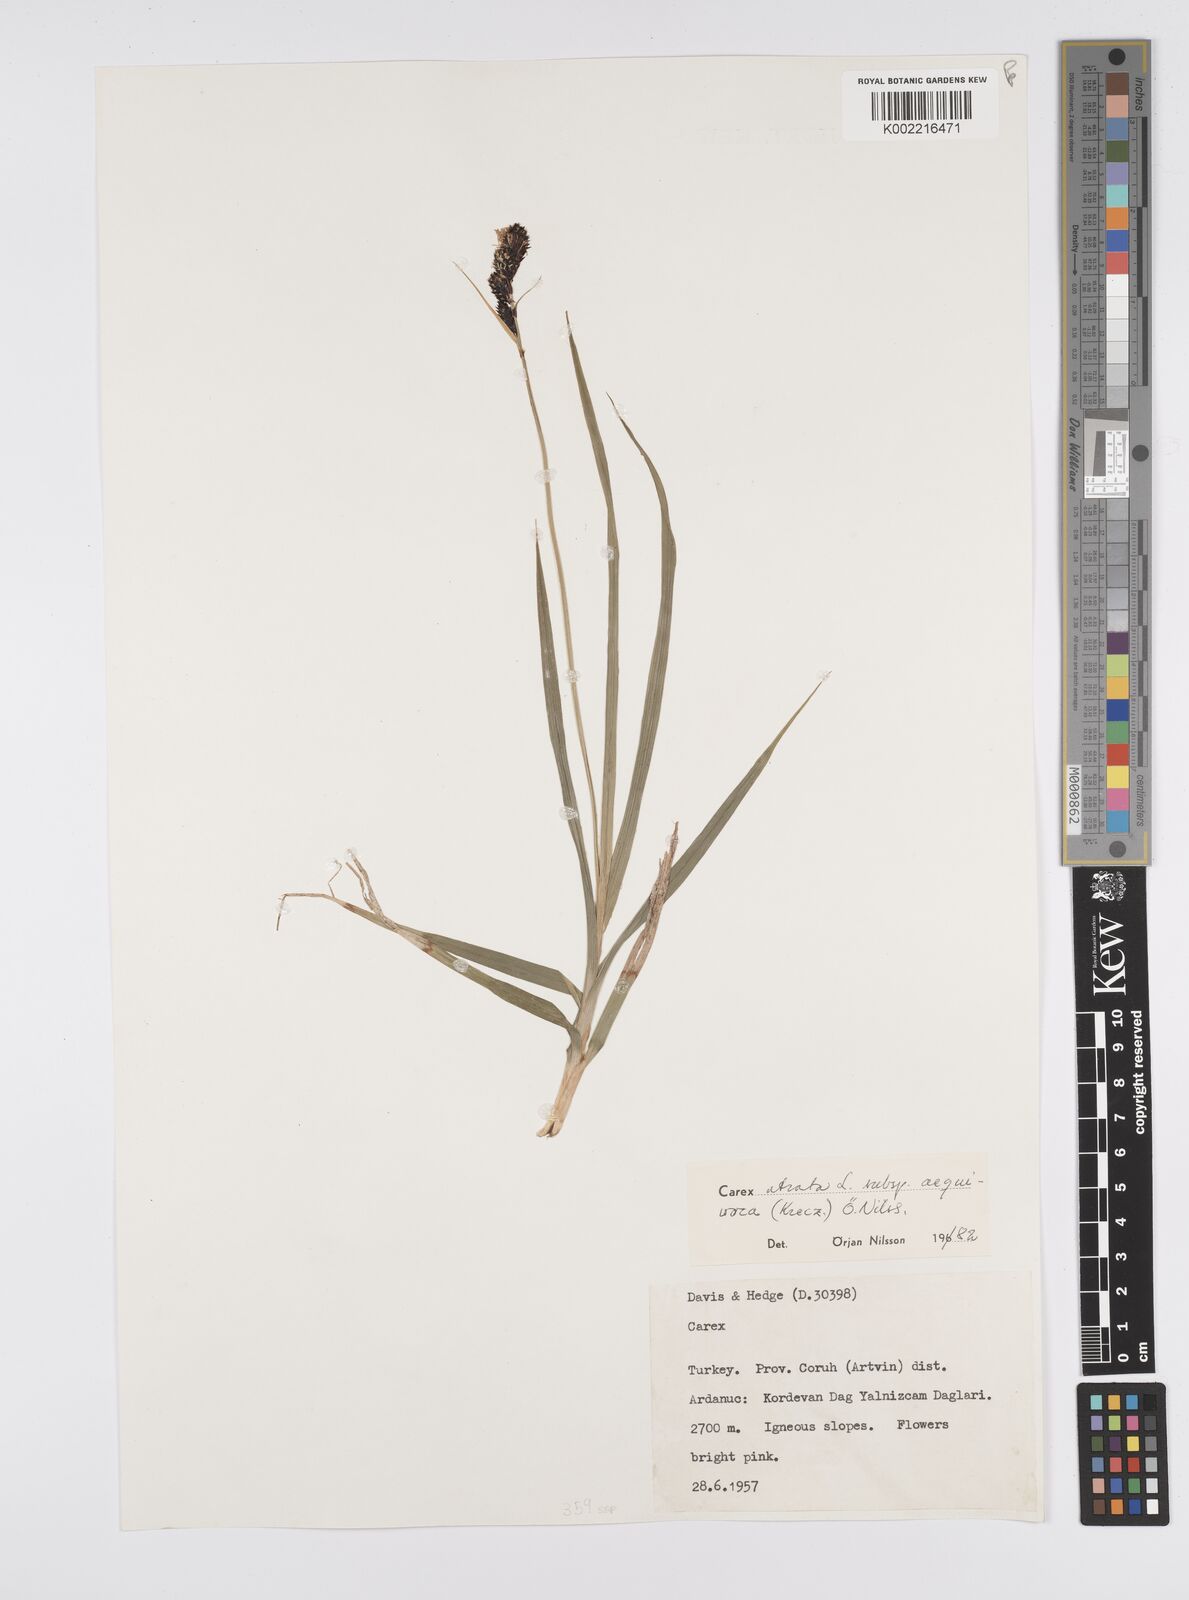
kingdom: Plantae
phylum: Tracheophyta
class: Liliopsida
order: Poales
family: Cyperaceae
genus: Carex
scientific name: Carex atrata
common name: Black alpine sedge
